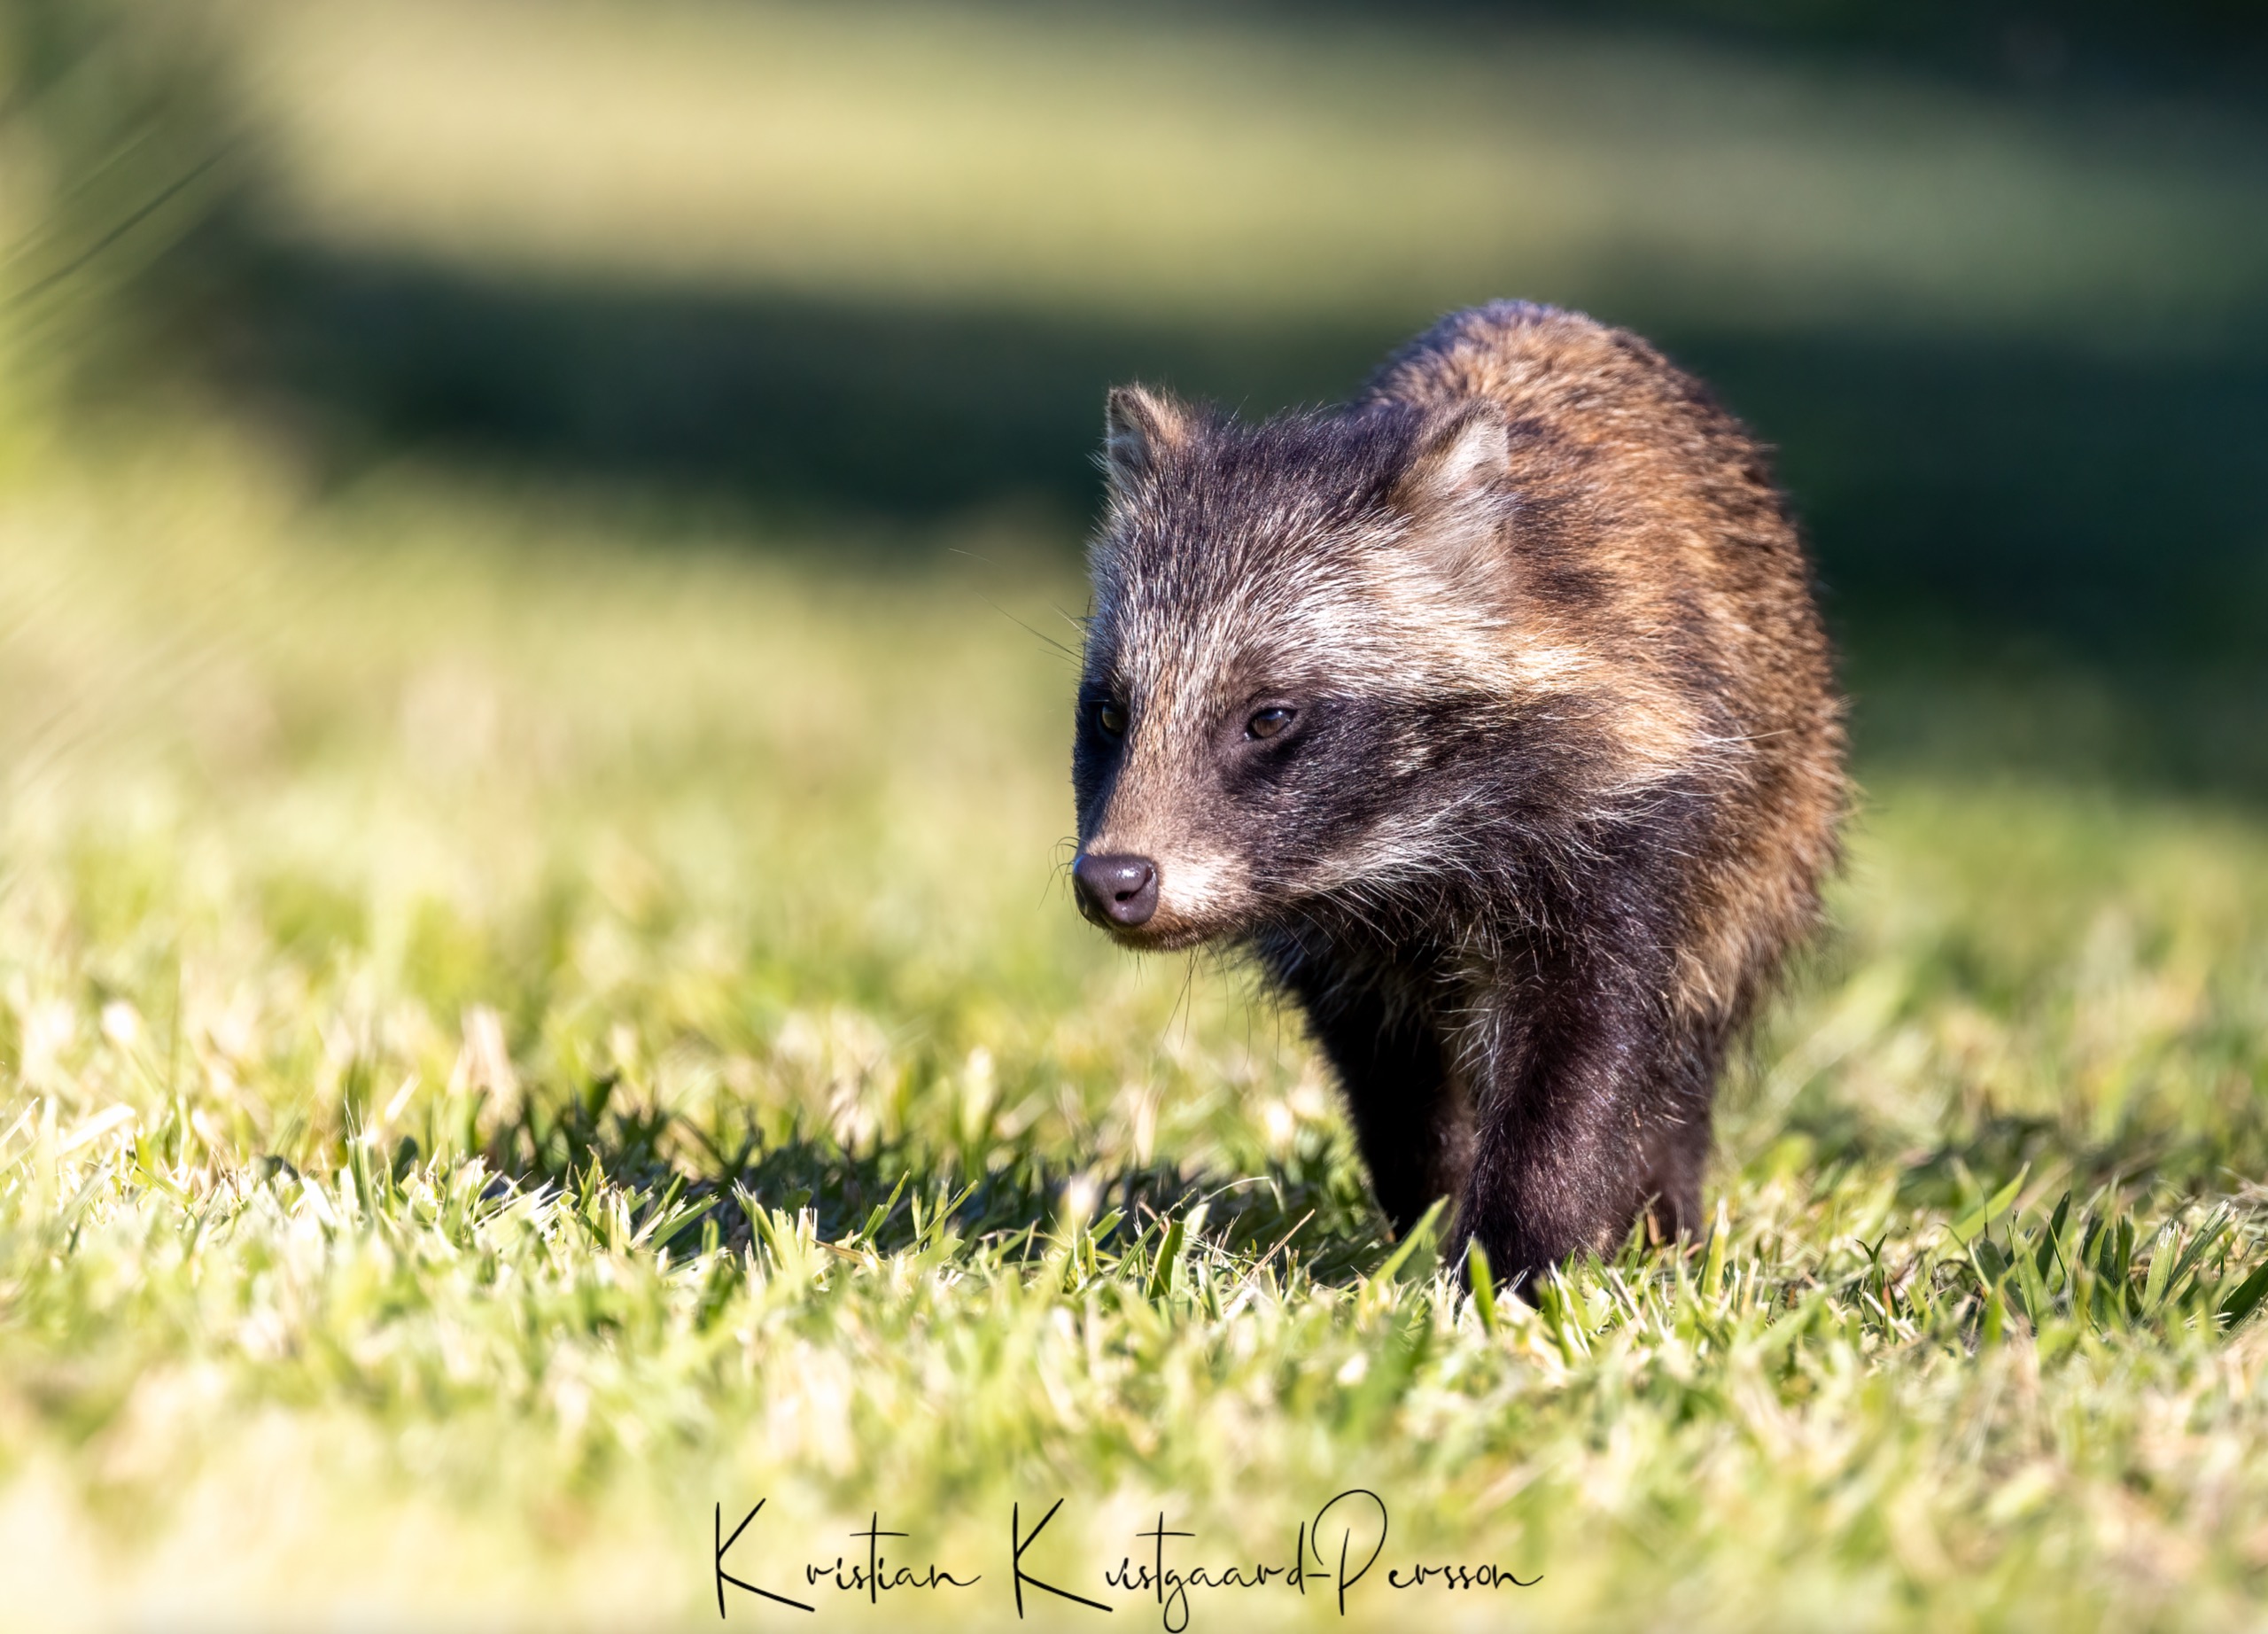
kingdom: Animalia
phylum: Chordata
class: Mammalia
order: Carnivora
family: Canidae
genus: Nyctereutes
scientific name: Nyctereutes procyonoides
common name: Mårhund
